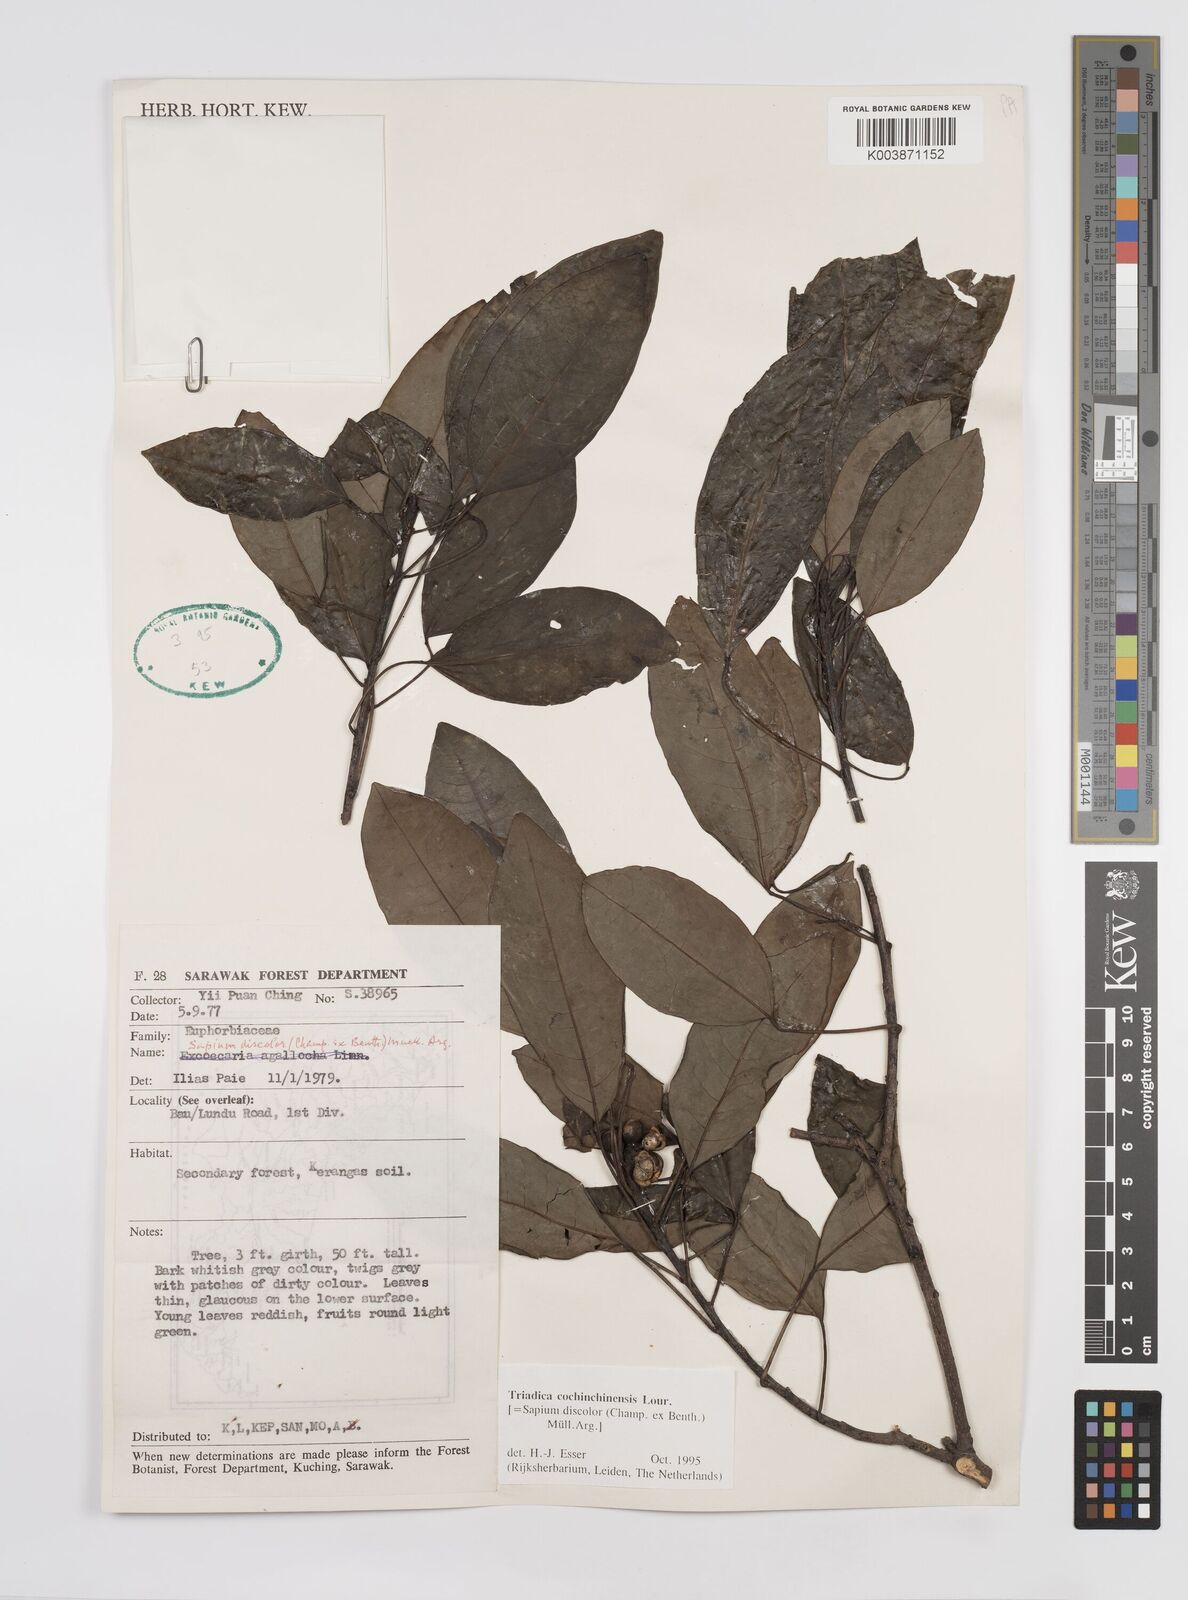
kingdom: Plantae
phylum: Tracheophyta
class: Magnoliopsida
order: Malpighiales
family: Euphorbiaceae
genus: Triadica
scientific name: Triadica cochinchinensis
